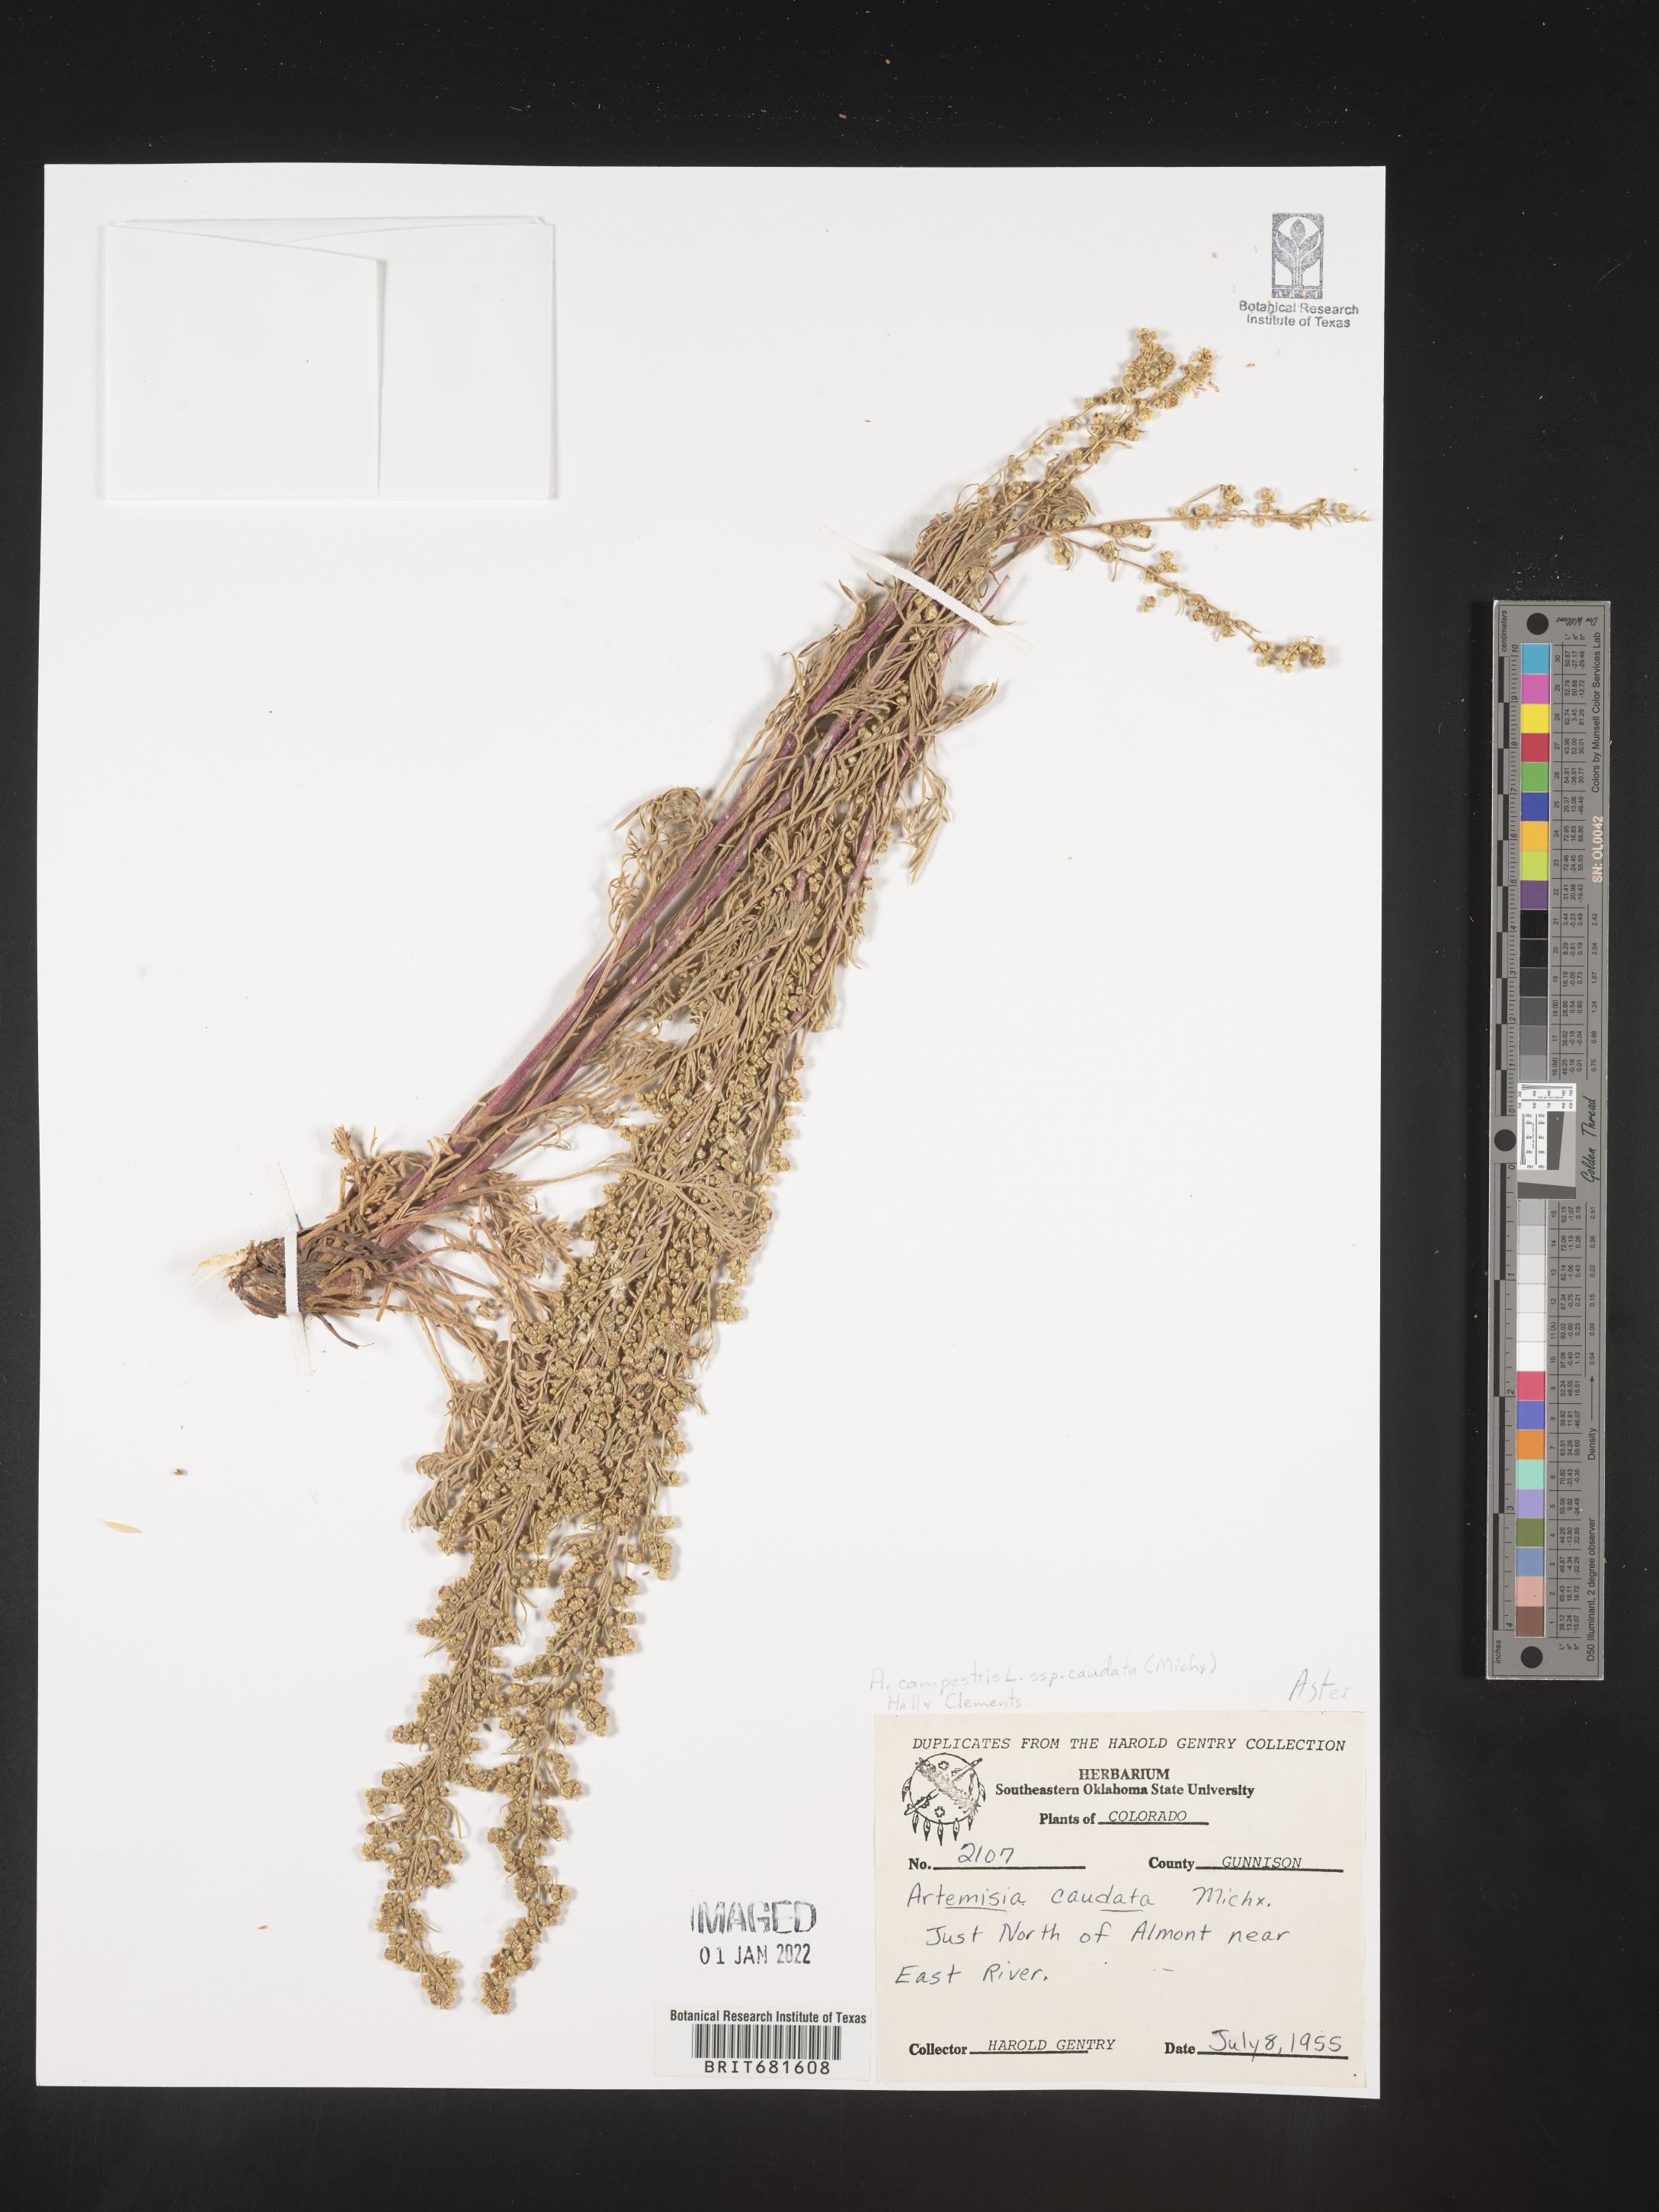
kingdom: Plantae
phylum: Tracheophyta
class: Magnoliopsida
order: Asterales
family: Asteraceae
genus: Artemisia
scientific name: Artemisia campestris
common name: Field wormwood
